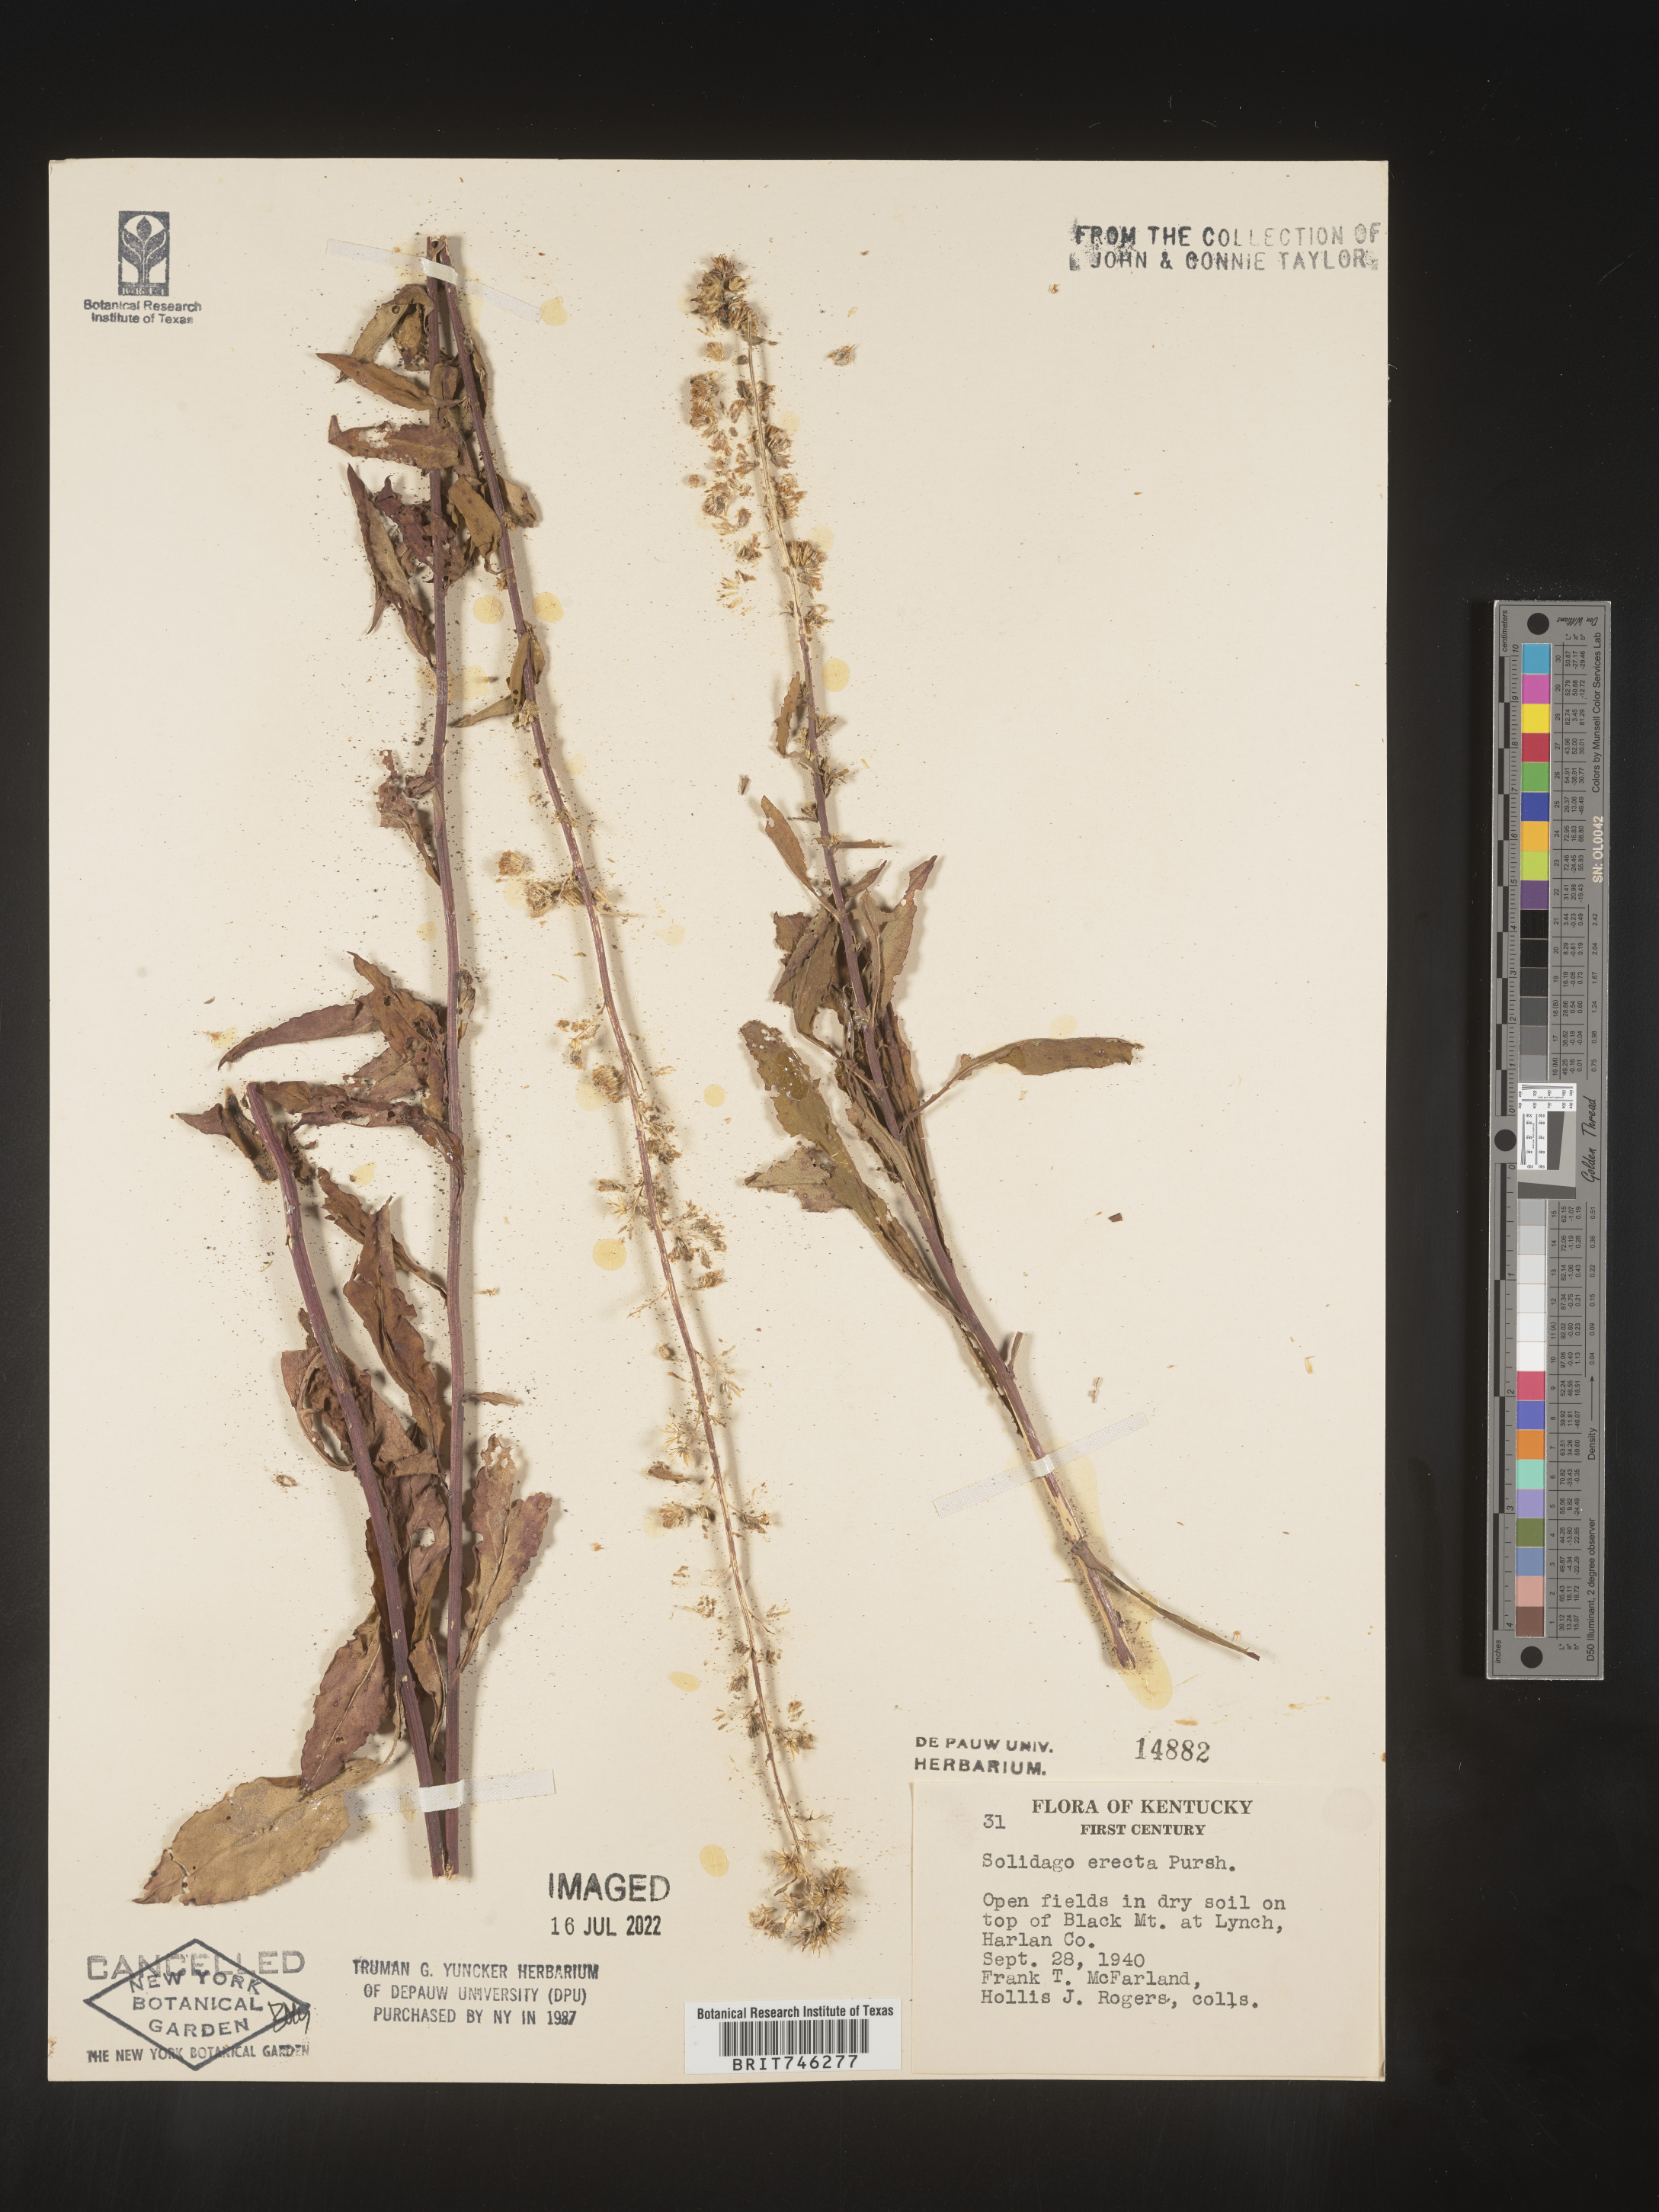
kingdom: Plantae
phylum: Tracheophyta
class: Magnoliopsida
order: Asterales
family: Asteraceae
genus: Solidago
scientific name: Solidago erecta
